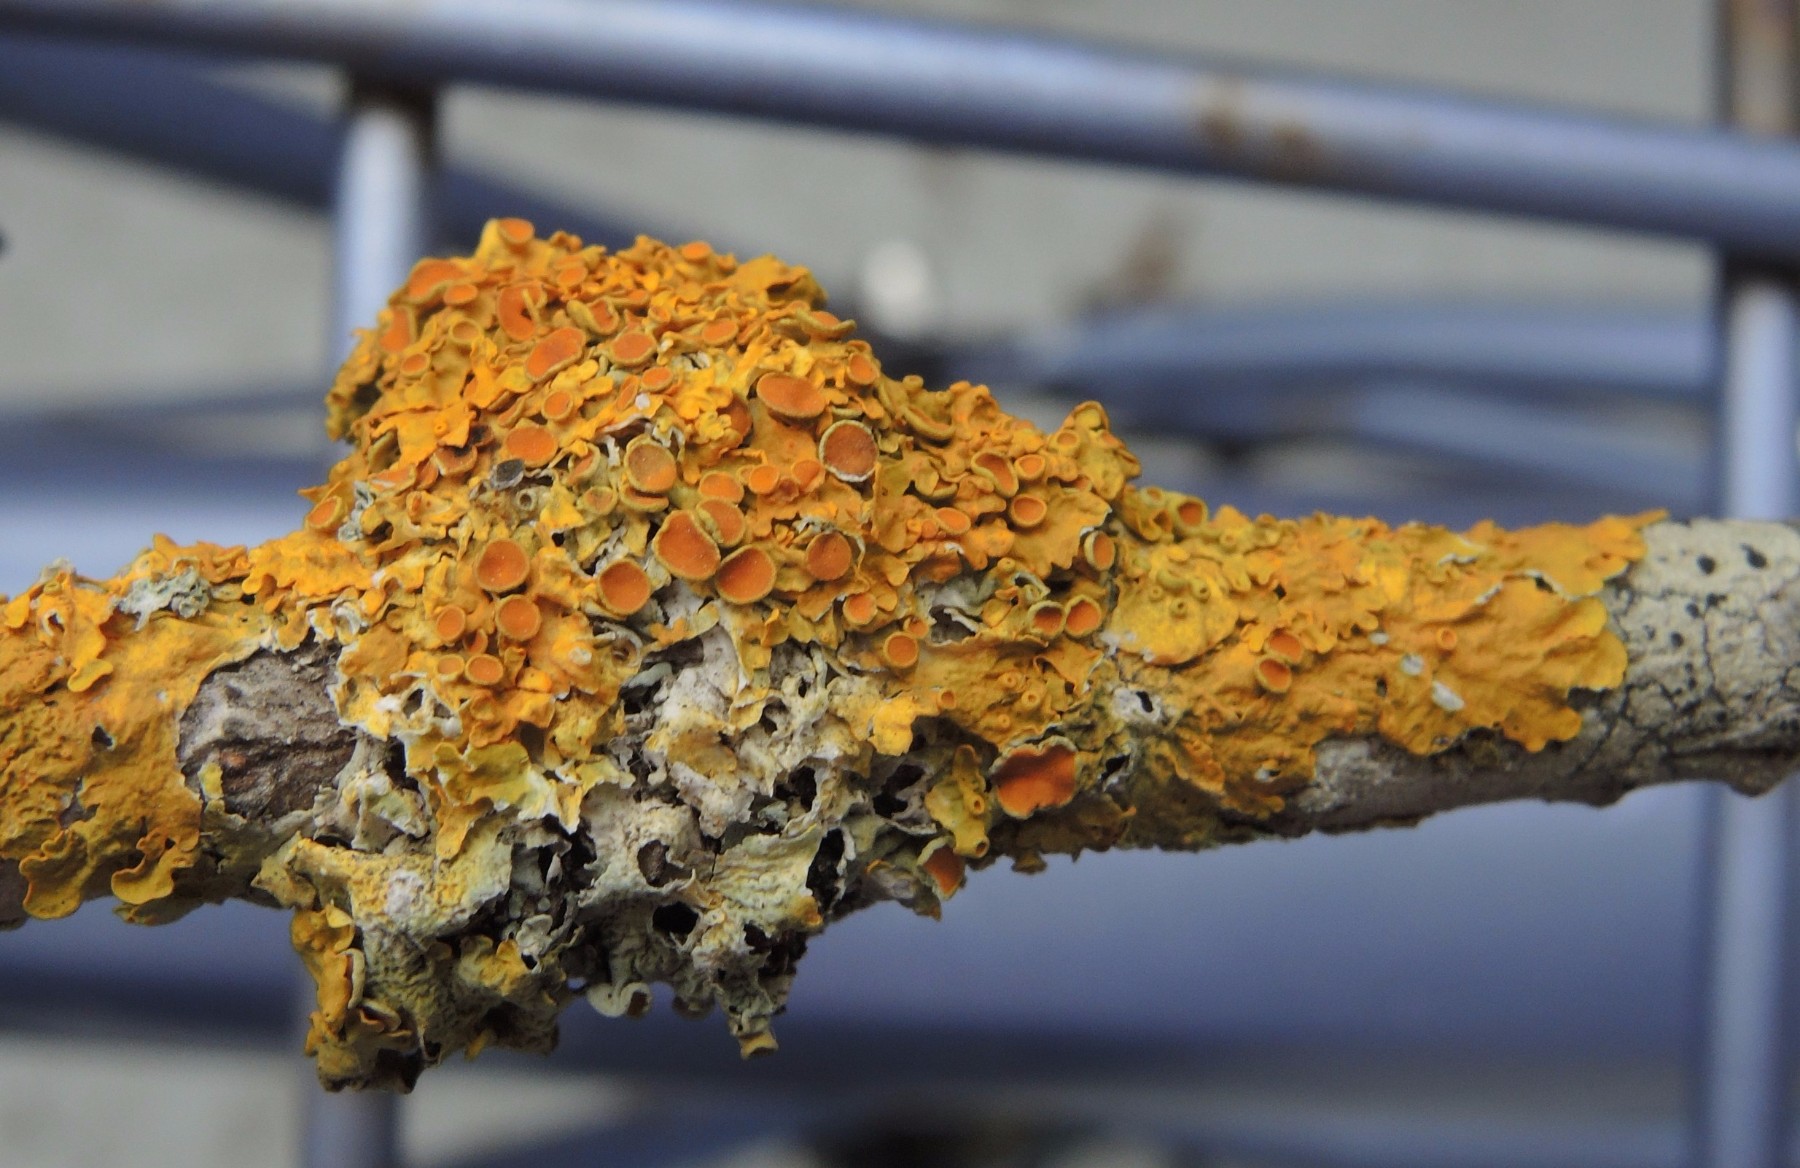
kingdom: Fungi
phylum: Ascomycota
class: Lecanoromycetes
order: Teloschistales
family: Teloschistaceae
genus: Xanthoria
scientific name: Xanthoria parietina
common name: almindelig væggelav
